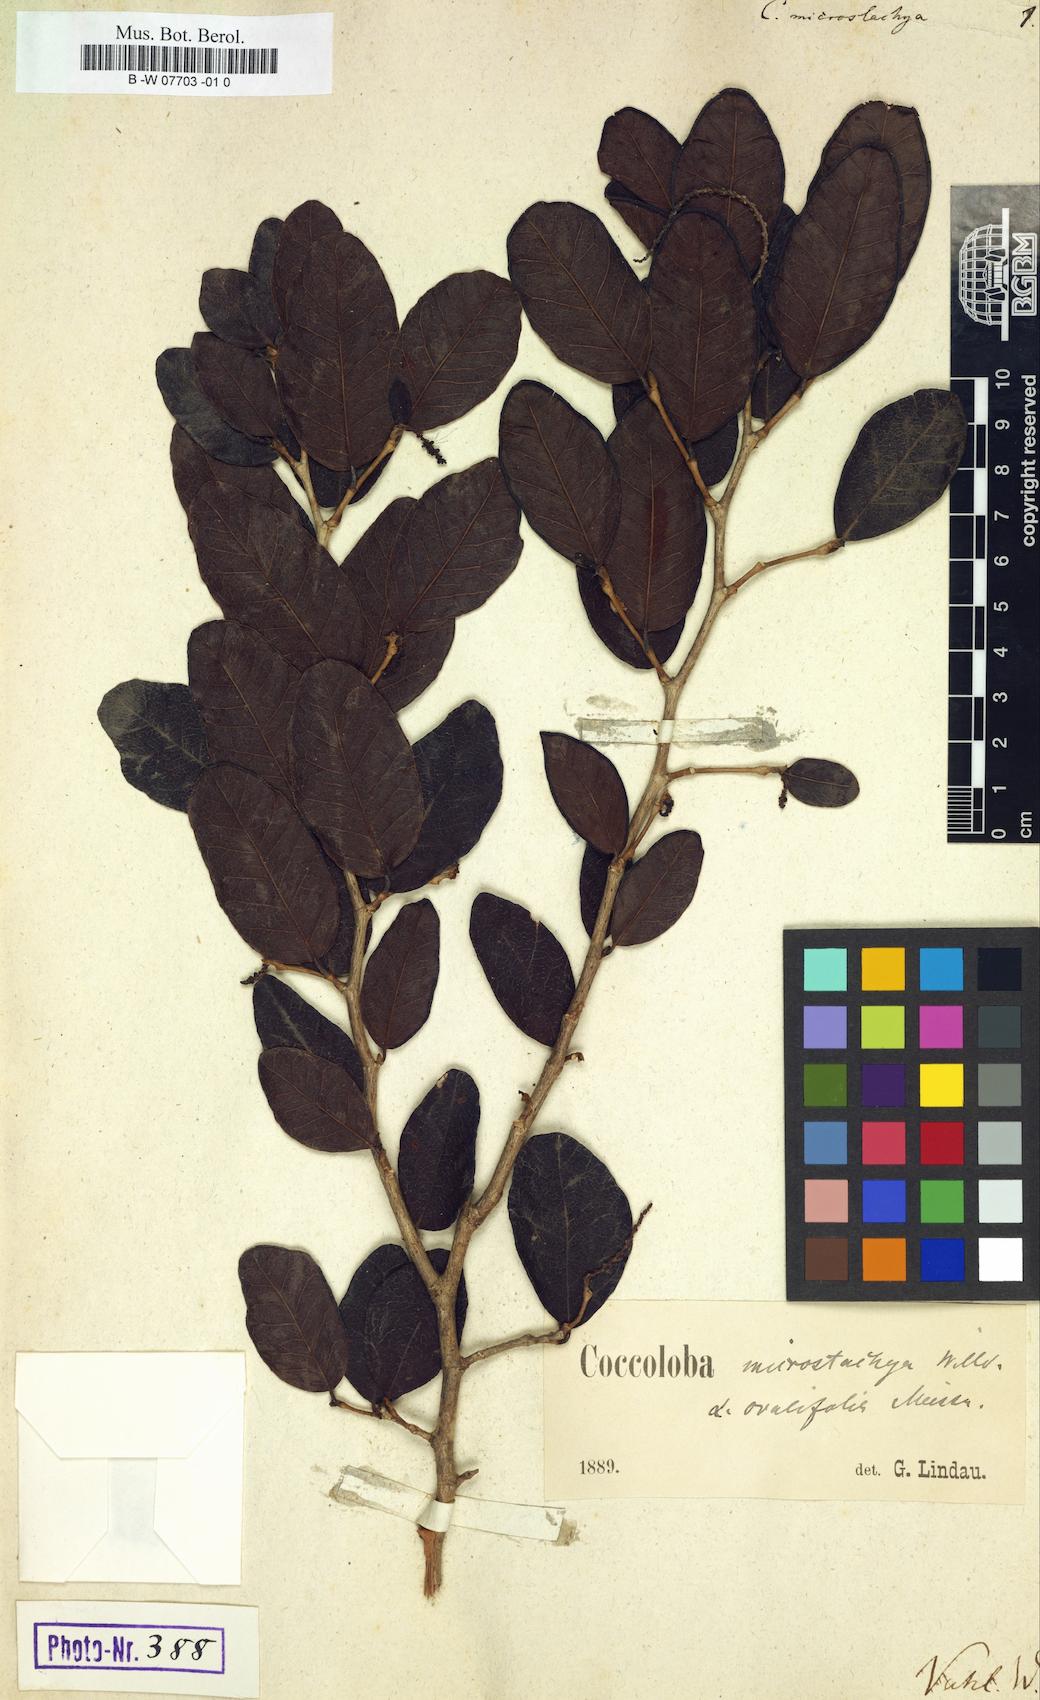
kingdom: Plantae
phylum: Tracheophyta
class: Magnoliopsida
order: Caryophyllales
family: Polygonaceae
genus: Coccoloba
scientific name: Coccoloba microstachya
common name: Puckout
